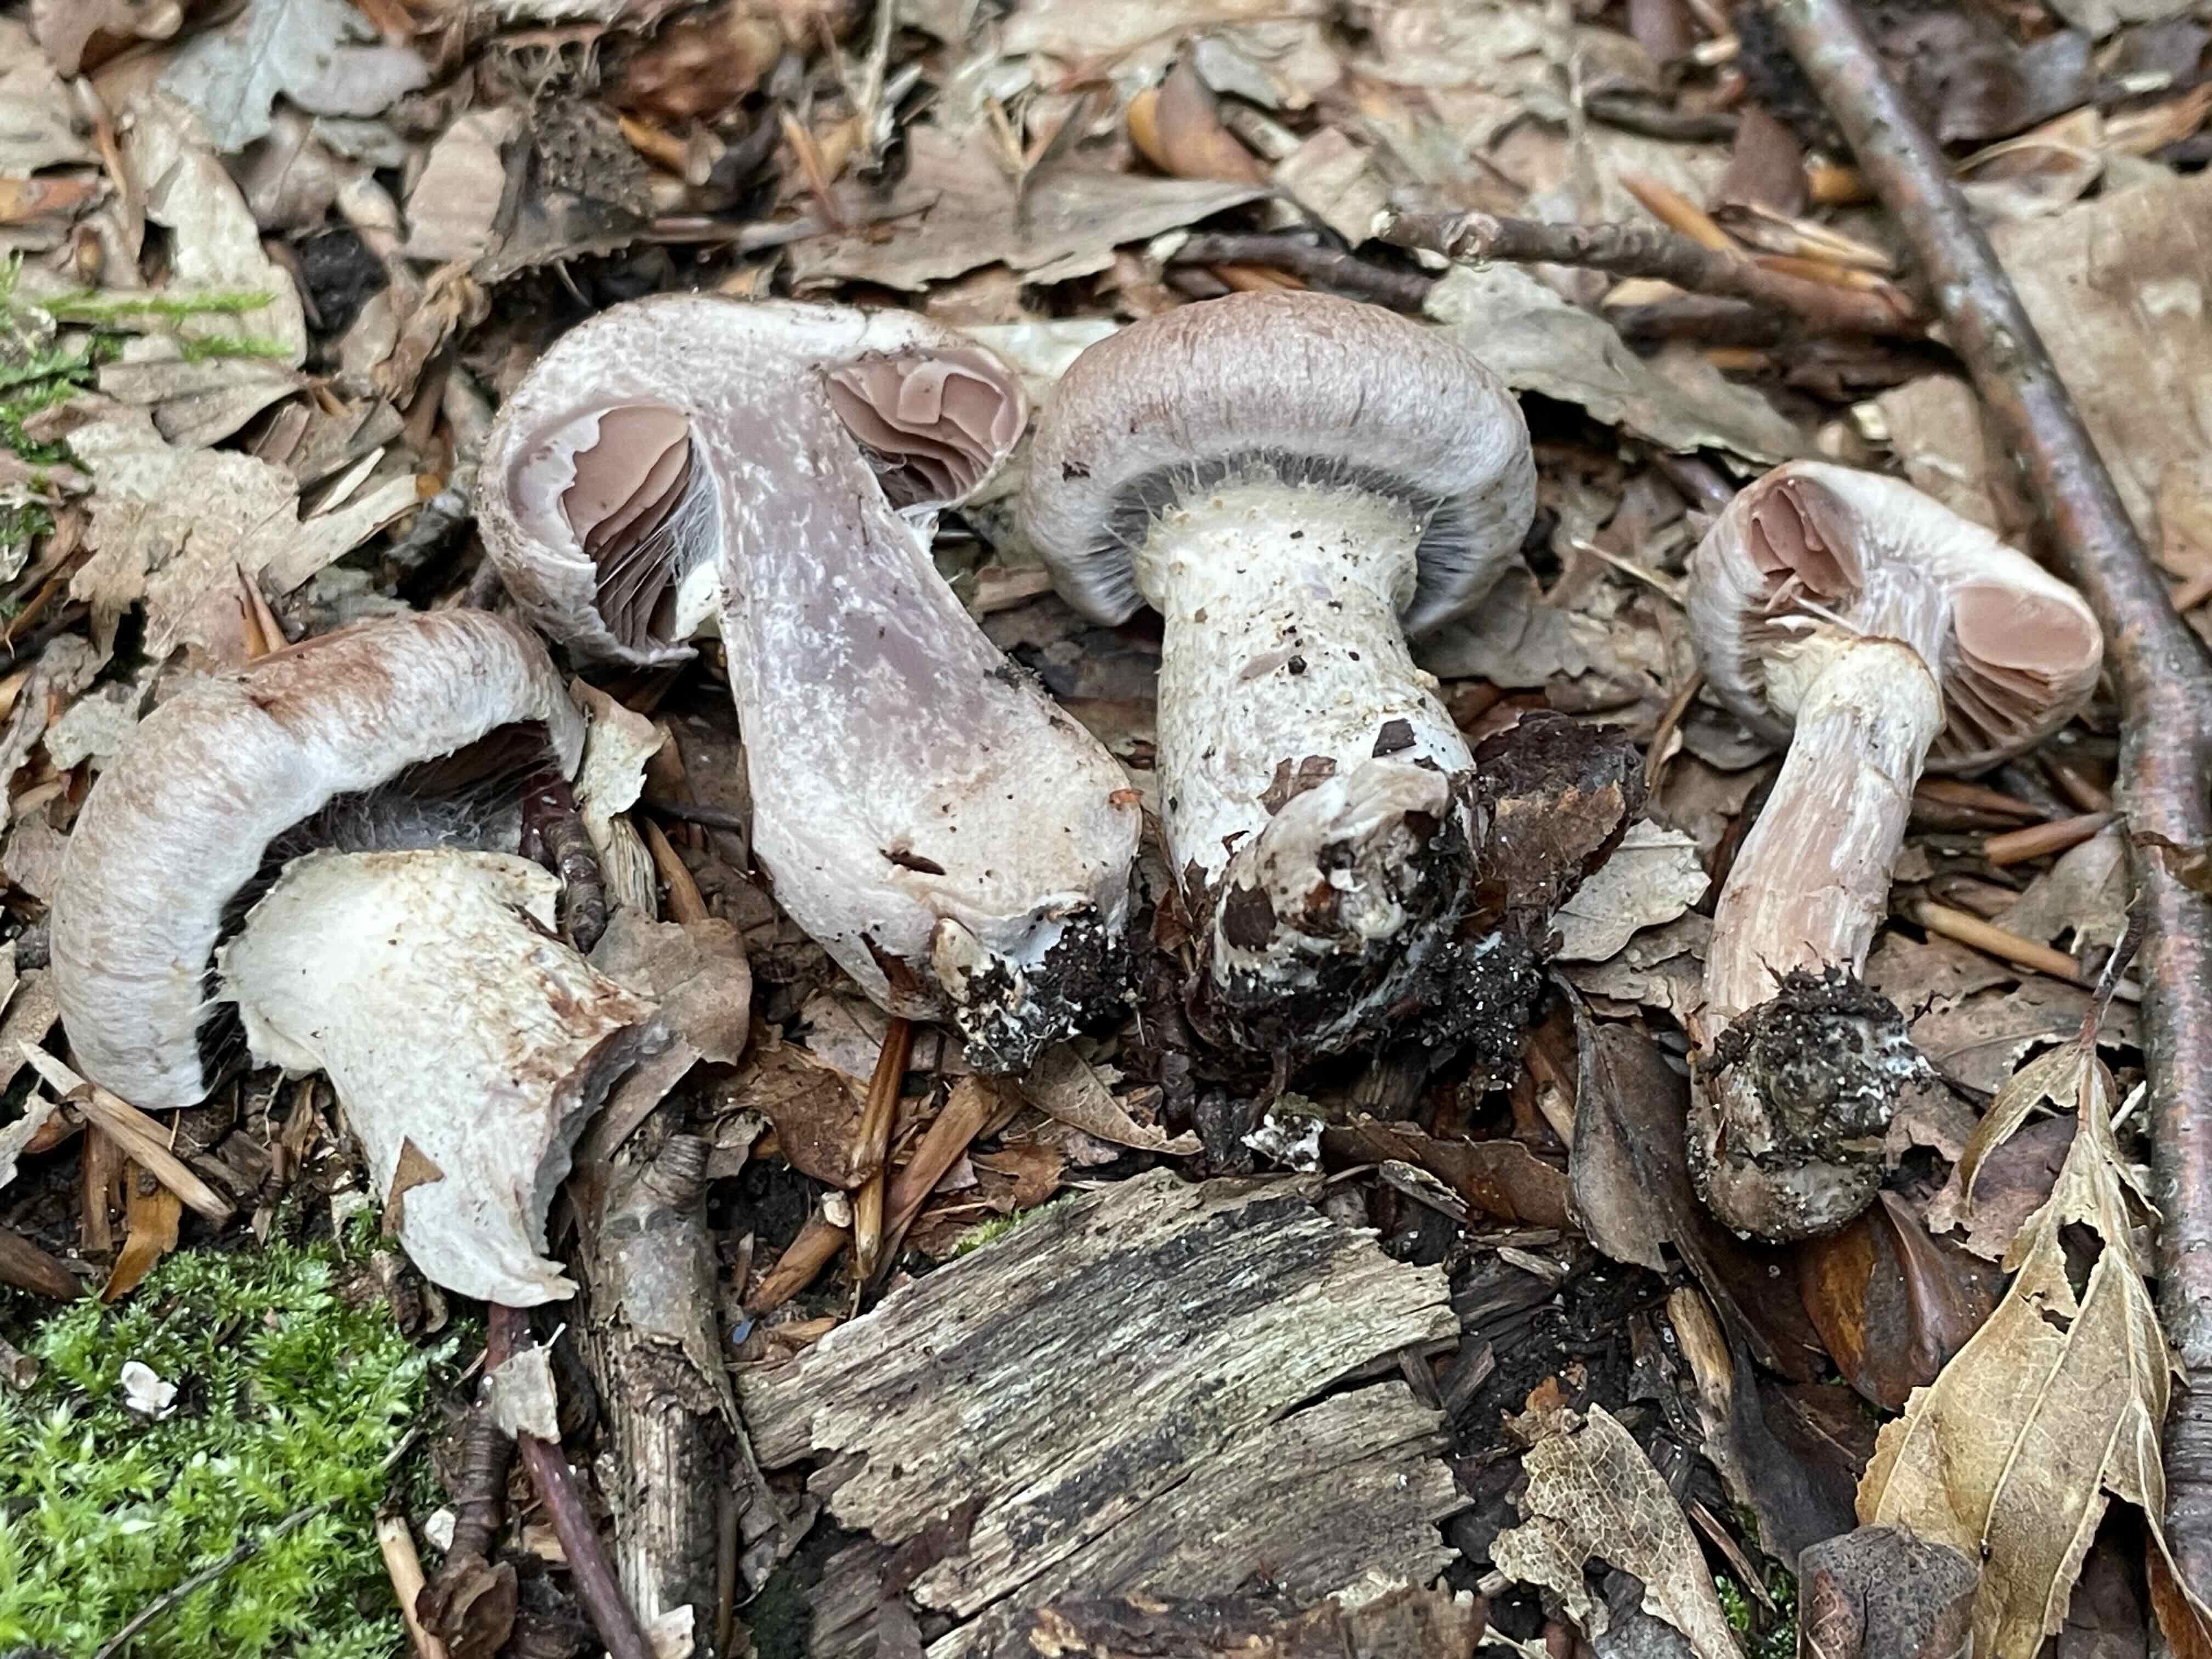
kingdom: Fungi
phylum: Basidiomycota
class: Agaricomycetes
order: Agaricales
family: Cortinariaceae
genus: Cortinarius
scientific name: Cortinarius torvus
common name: champignonagtig slørhat
